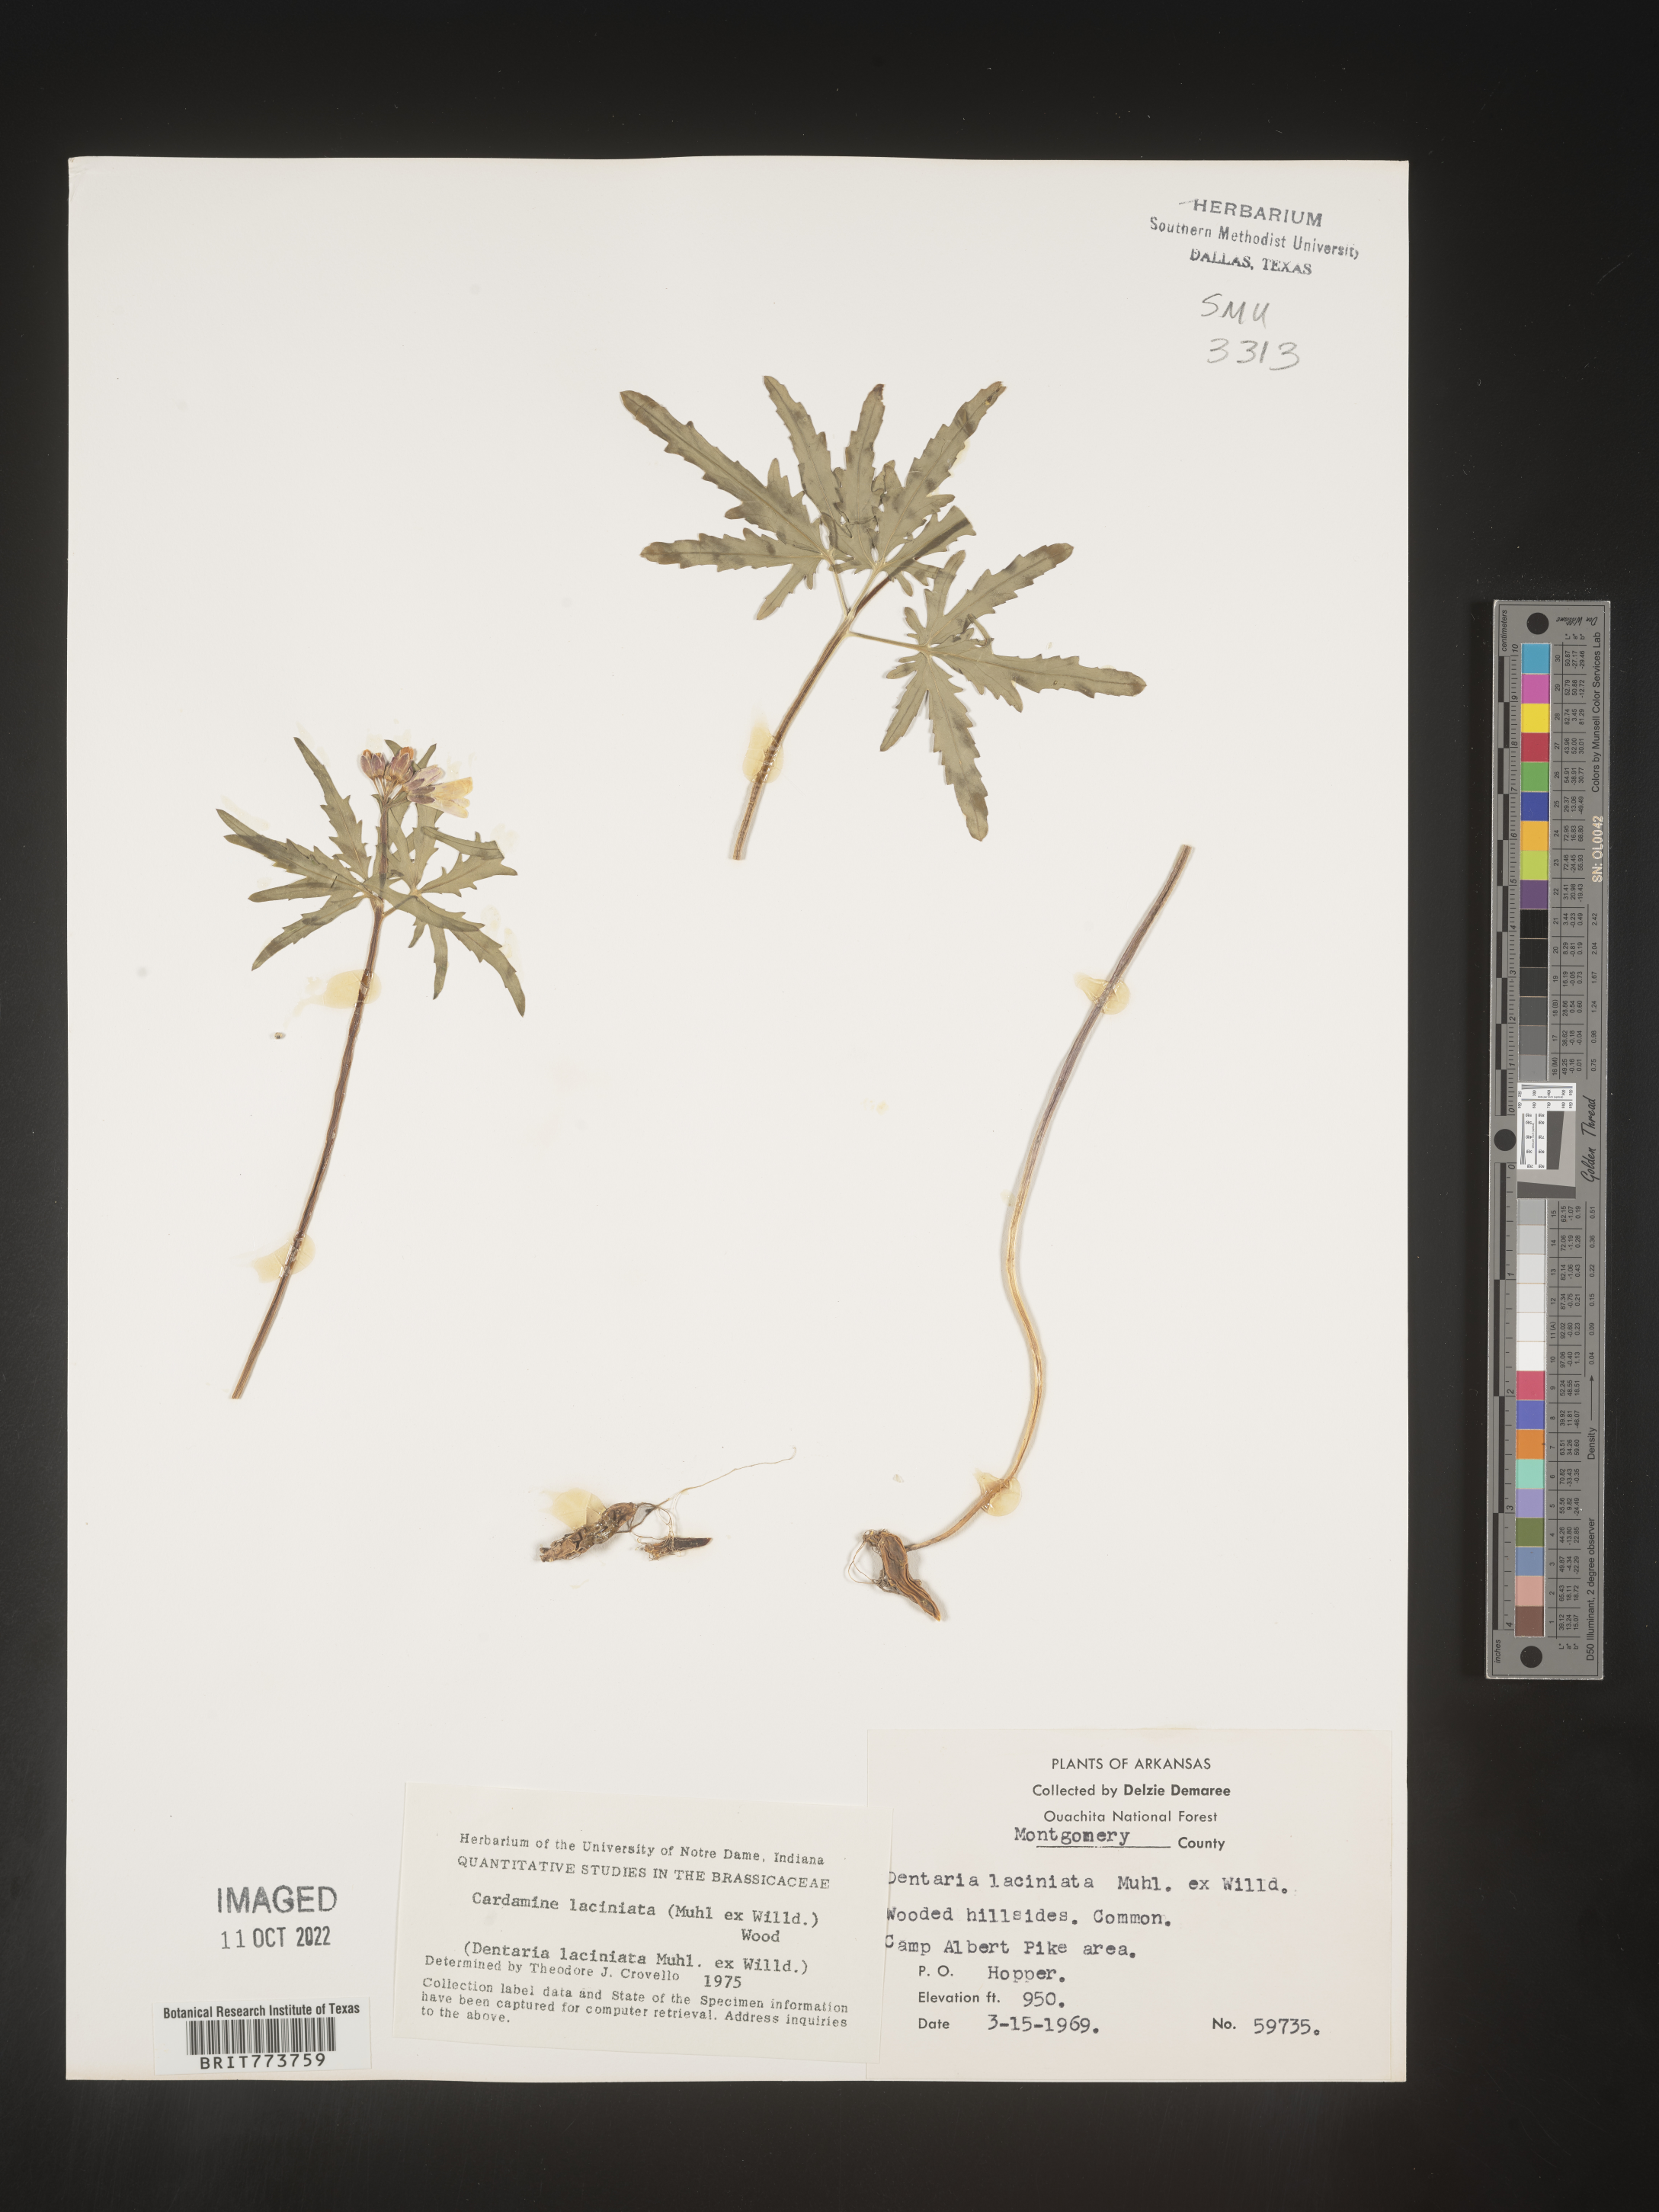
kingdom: Plantae
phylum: Tracheophyta
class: Magnoliopsida
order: Brassicales
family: Brassicaceae
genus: Rorippa
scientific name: Rorippa laciniata
